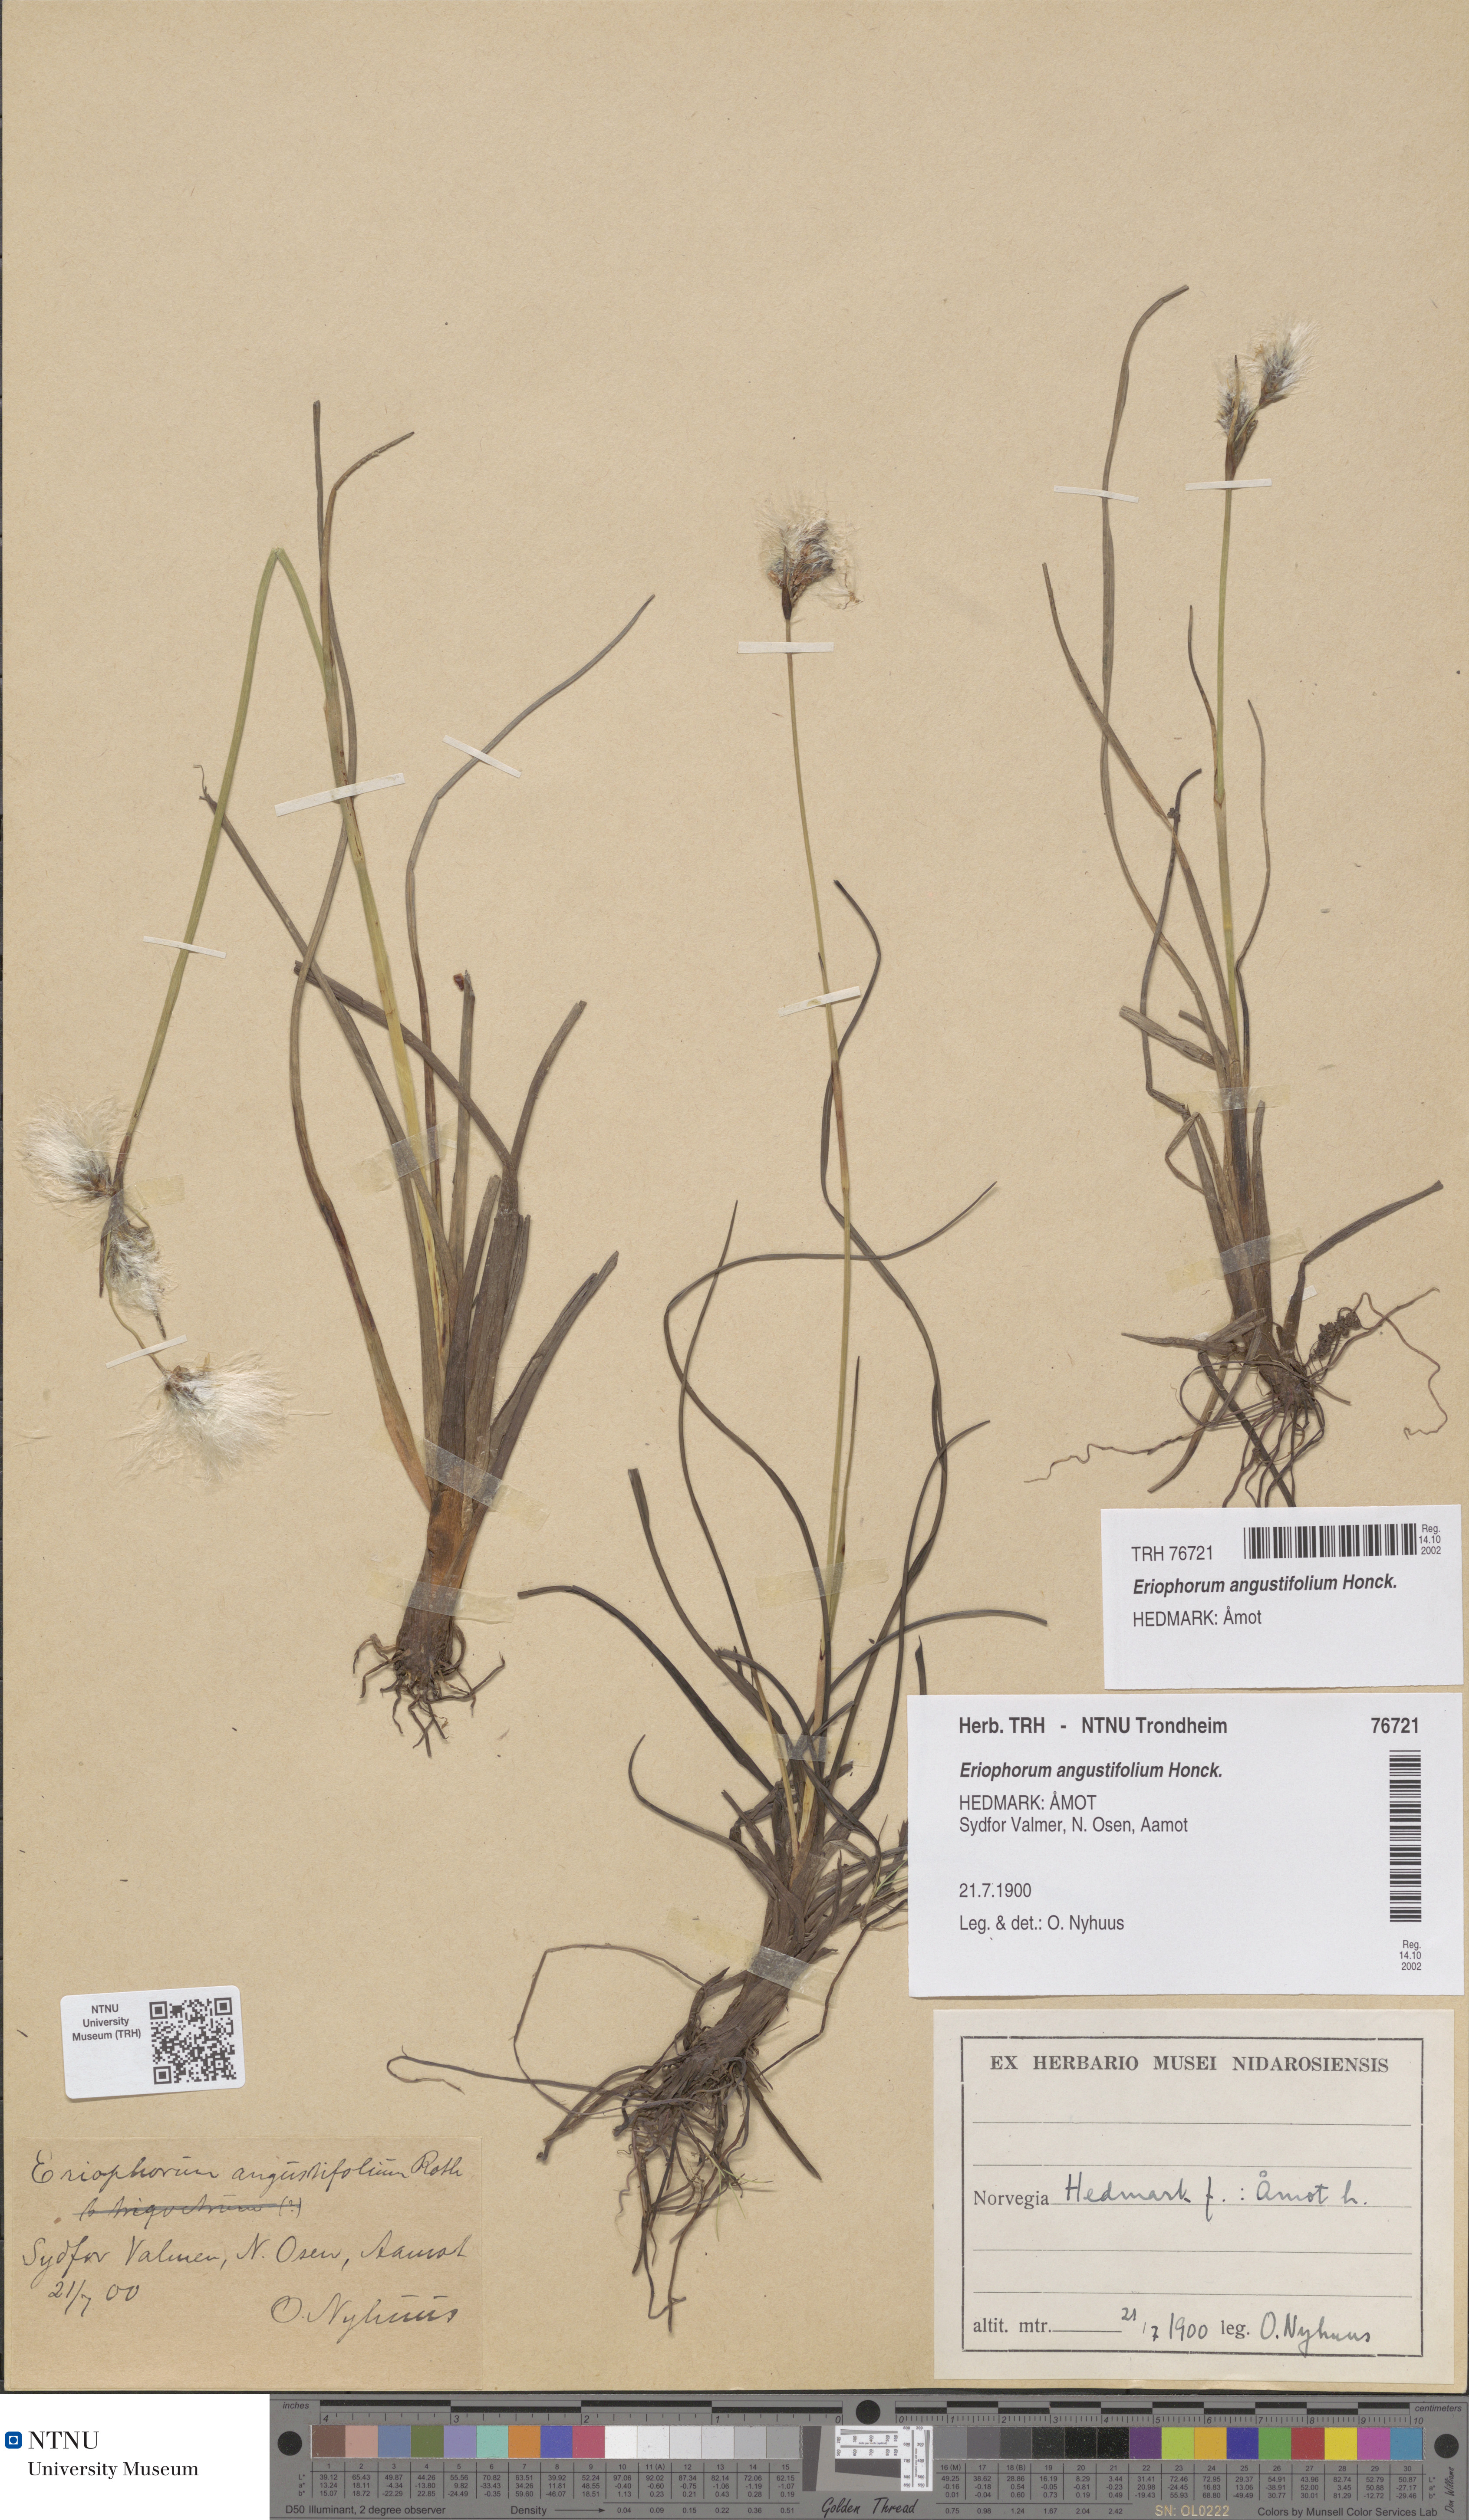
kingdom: Plantae
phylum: Tracheophyta
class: Liliopsida
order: Poales
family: Cyperaceae
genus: Eriophorum
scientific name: Eriophorum angustifolium
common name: Common cottongrass
